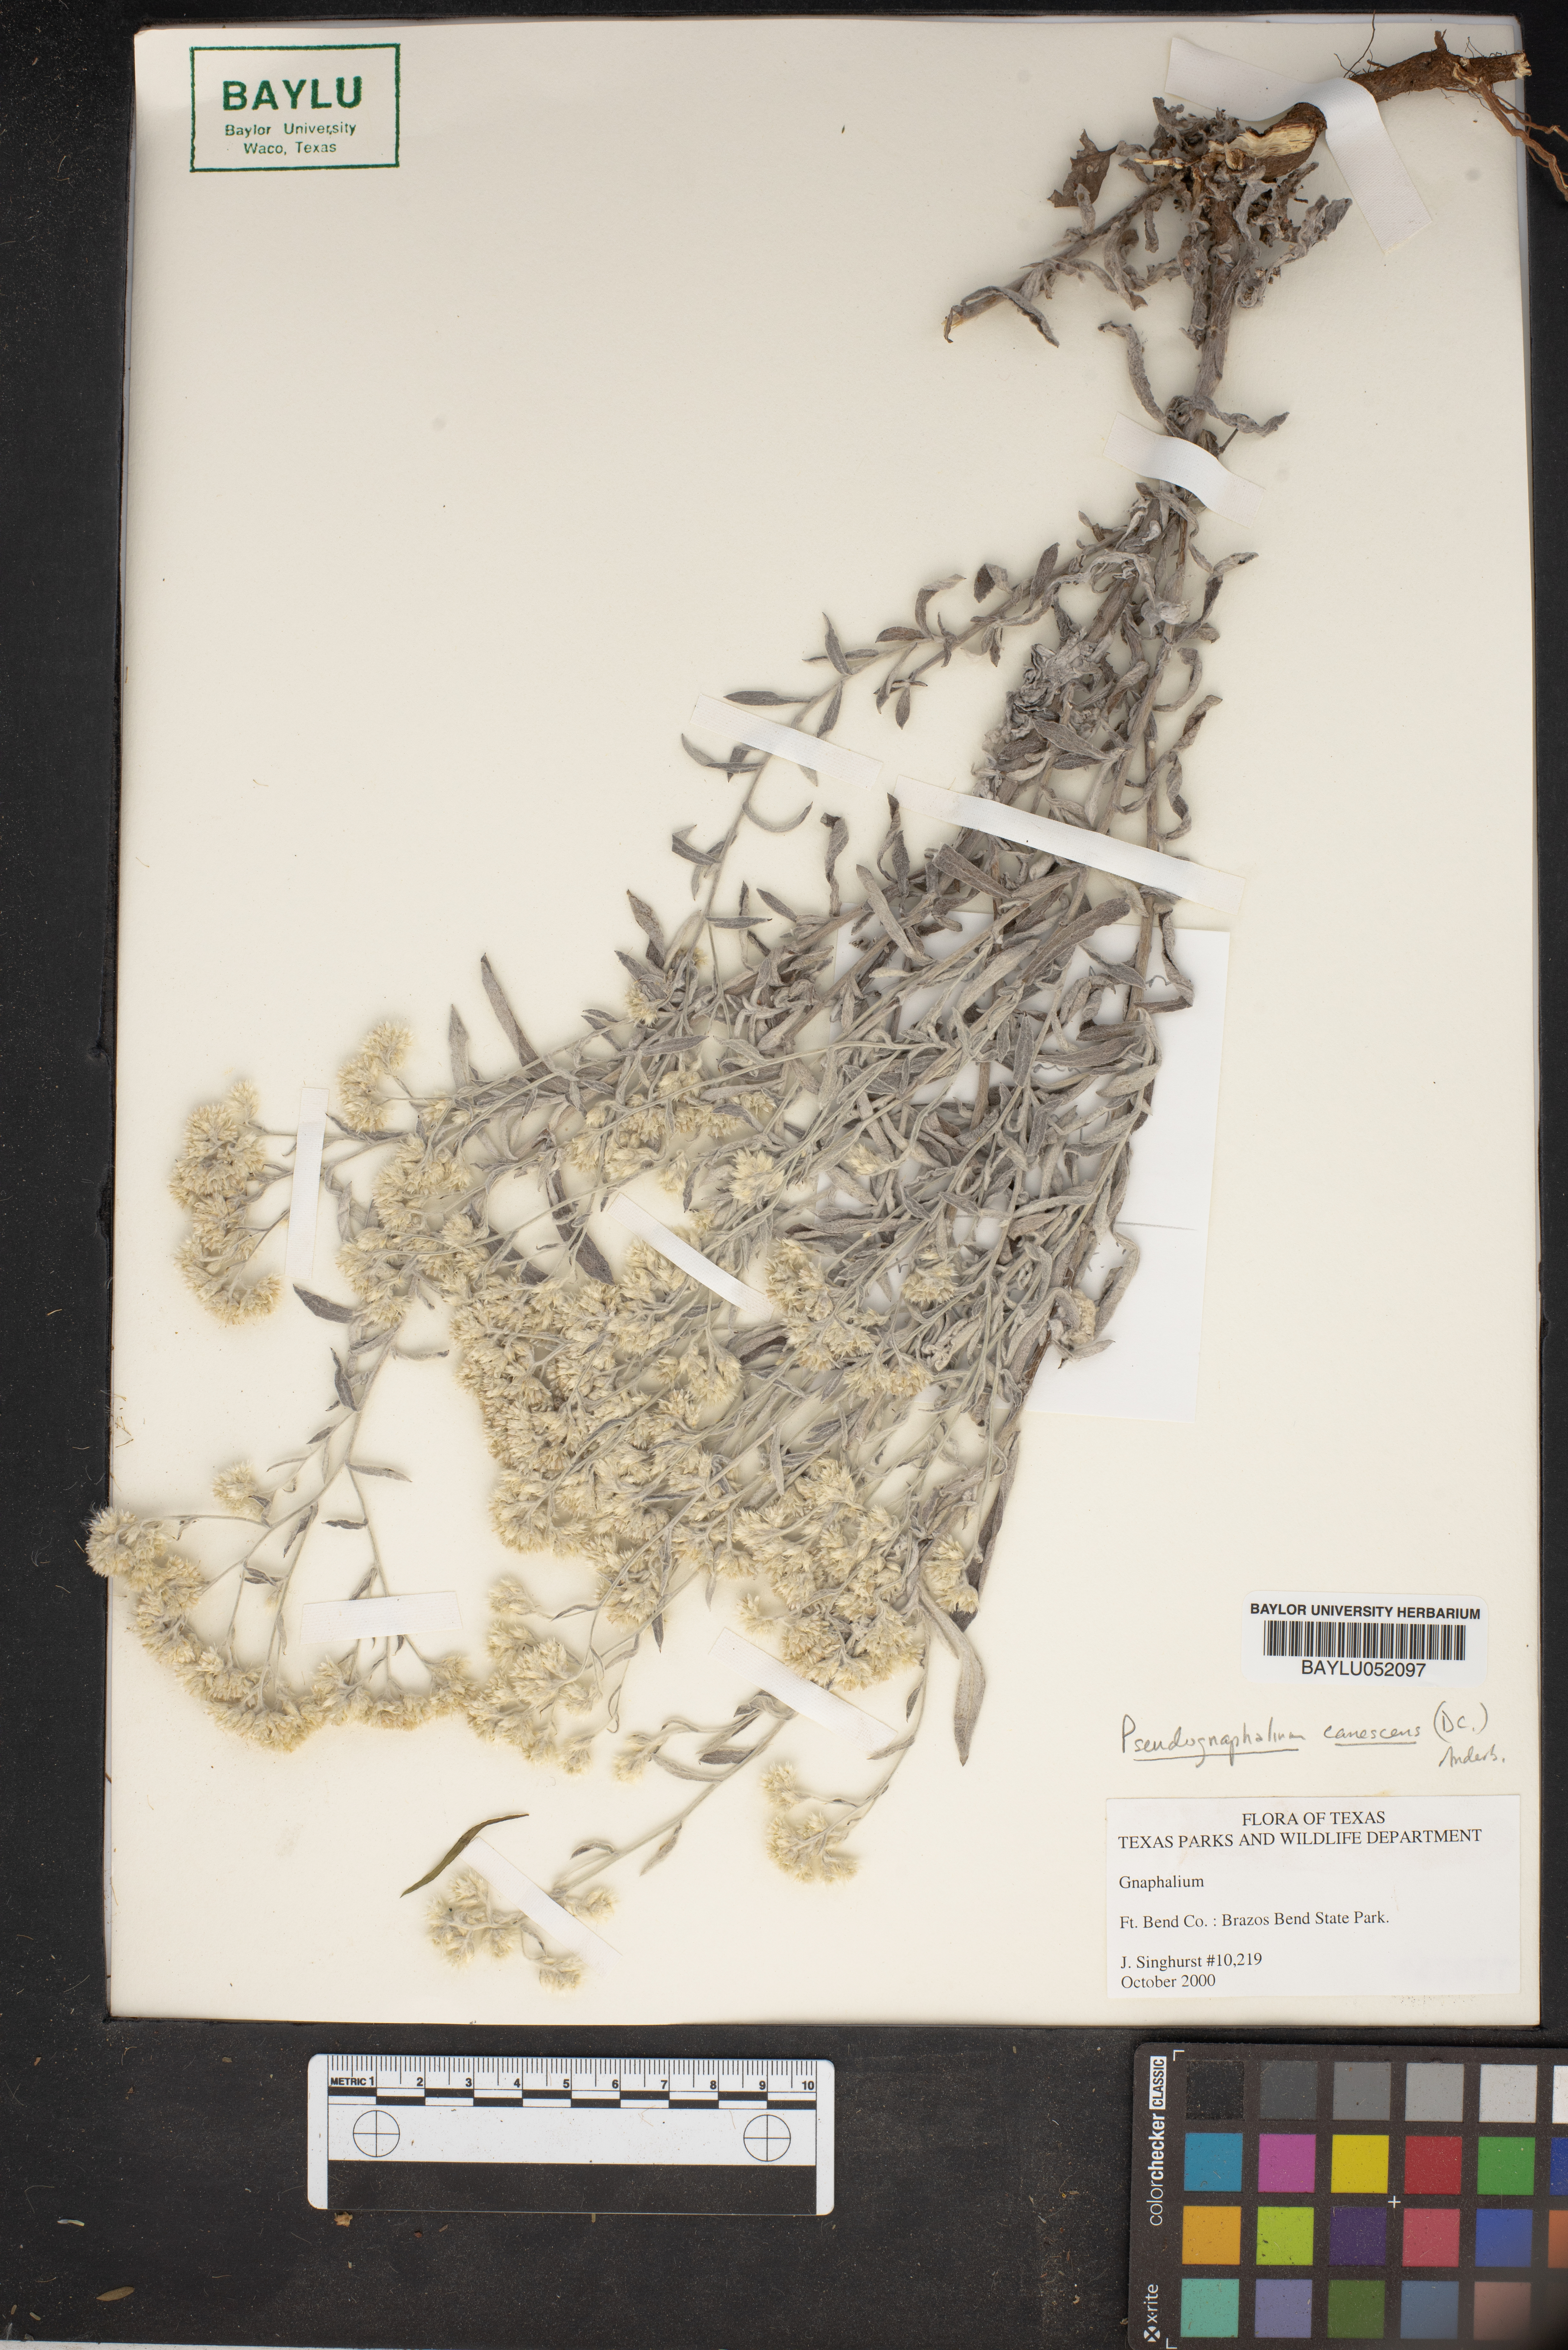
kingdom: Plantae
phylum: Tracheophyta
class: Magnoliopsida
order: Asterales
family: Asteraceae
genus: Gnaphalium
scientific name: Gnaphalium
